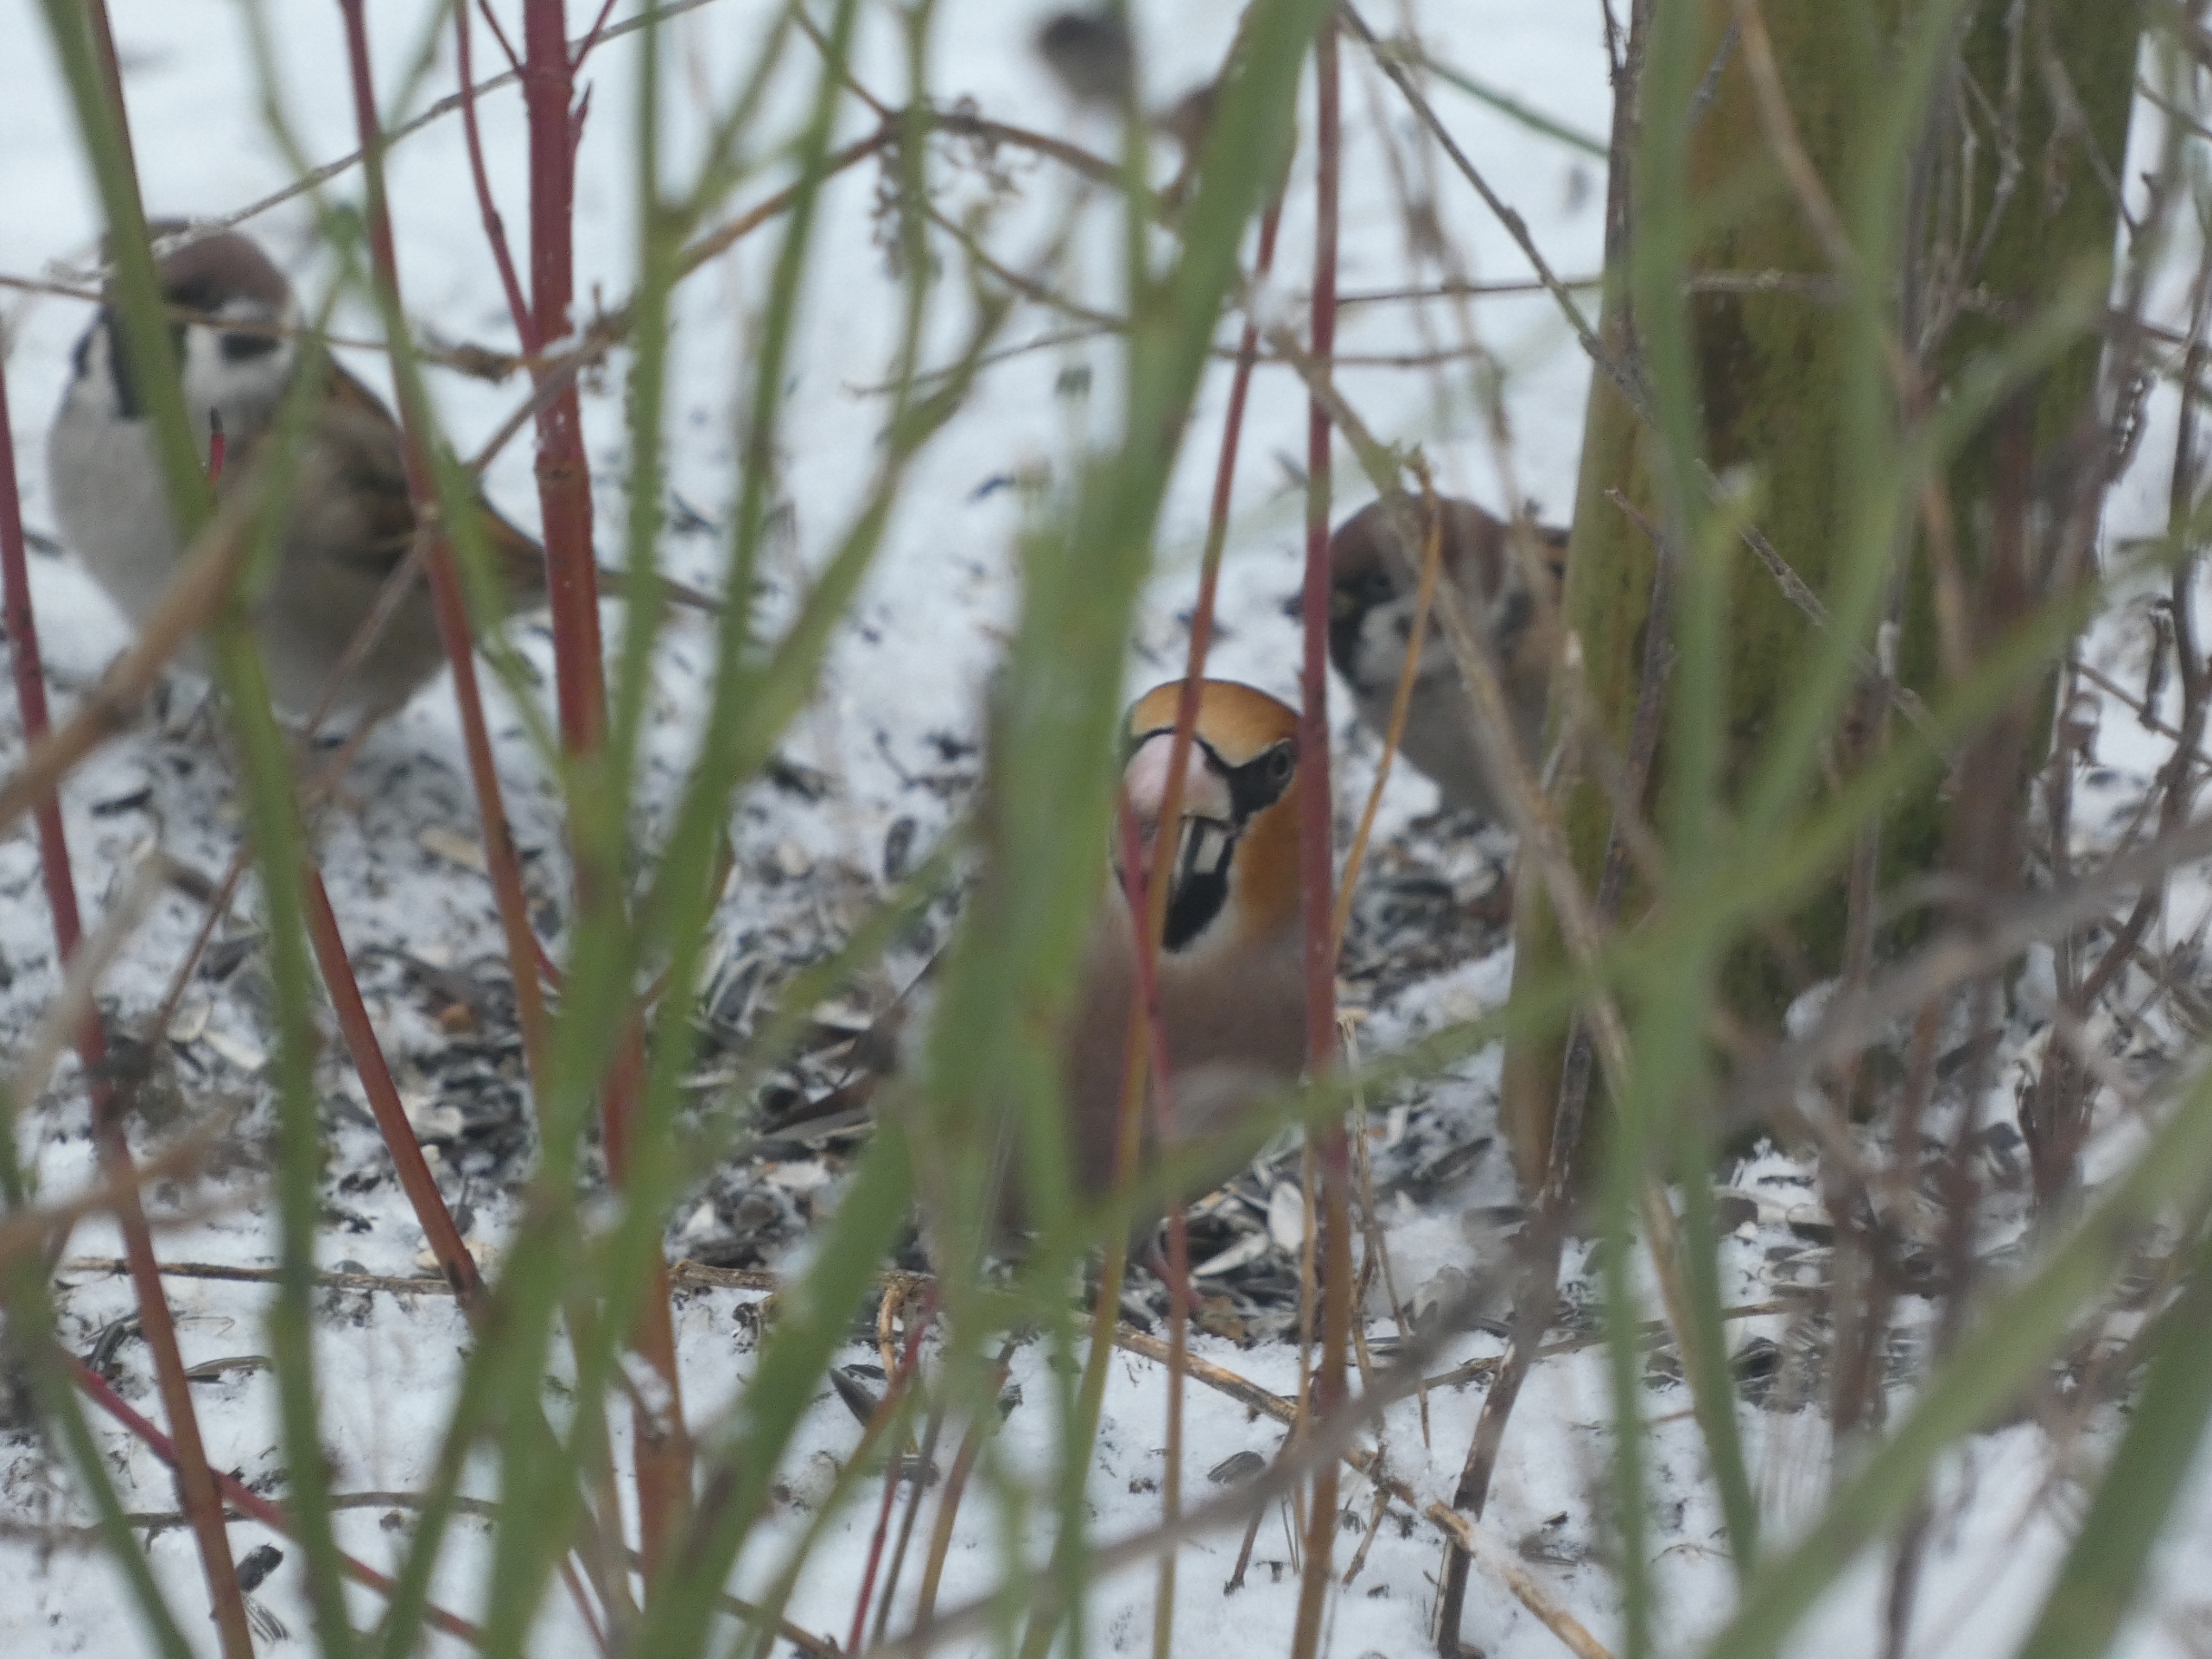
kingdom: Animalia
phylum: Chordata
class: Aves
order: Passeriformes
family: Fringillidae
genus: Coccothraustes
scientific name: Coccothraustes coccothraustes
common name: Kernebider
